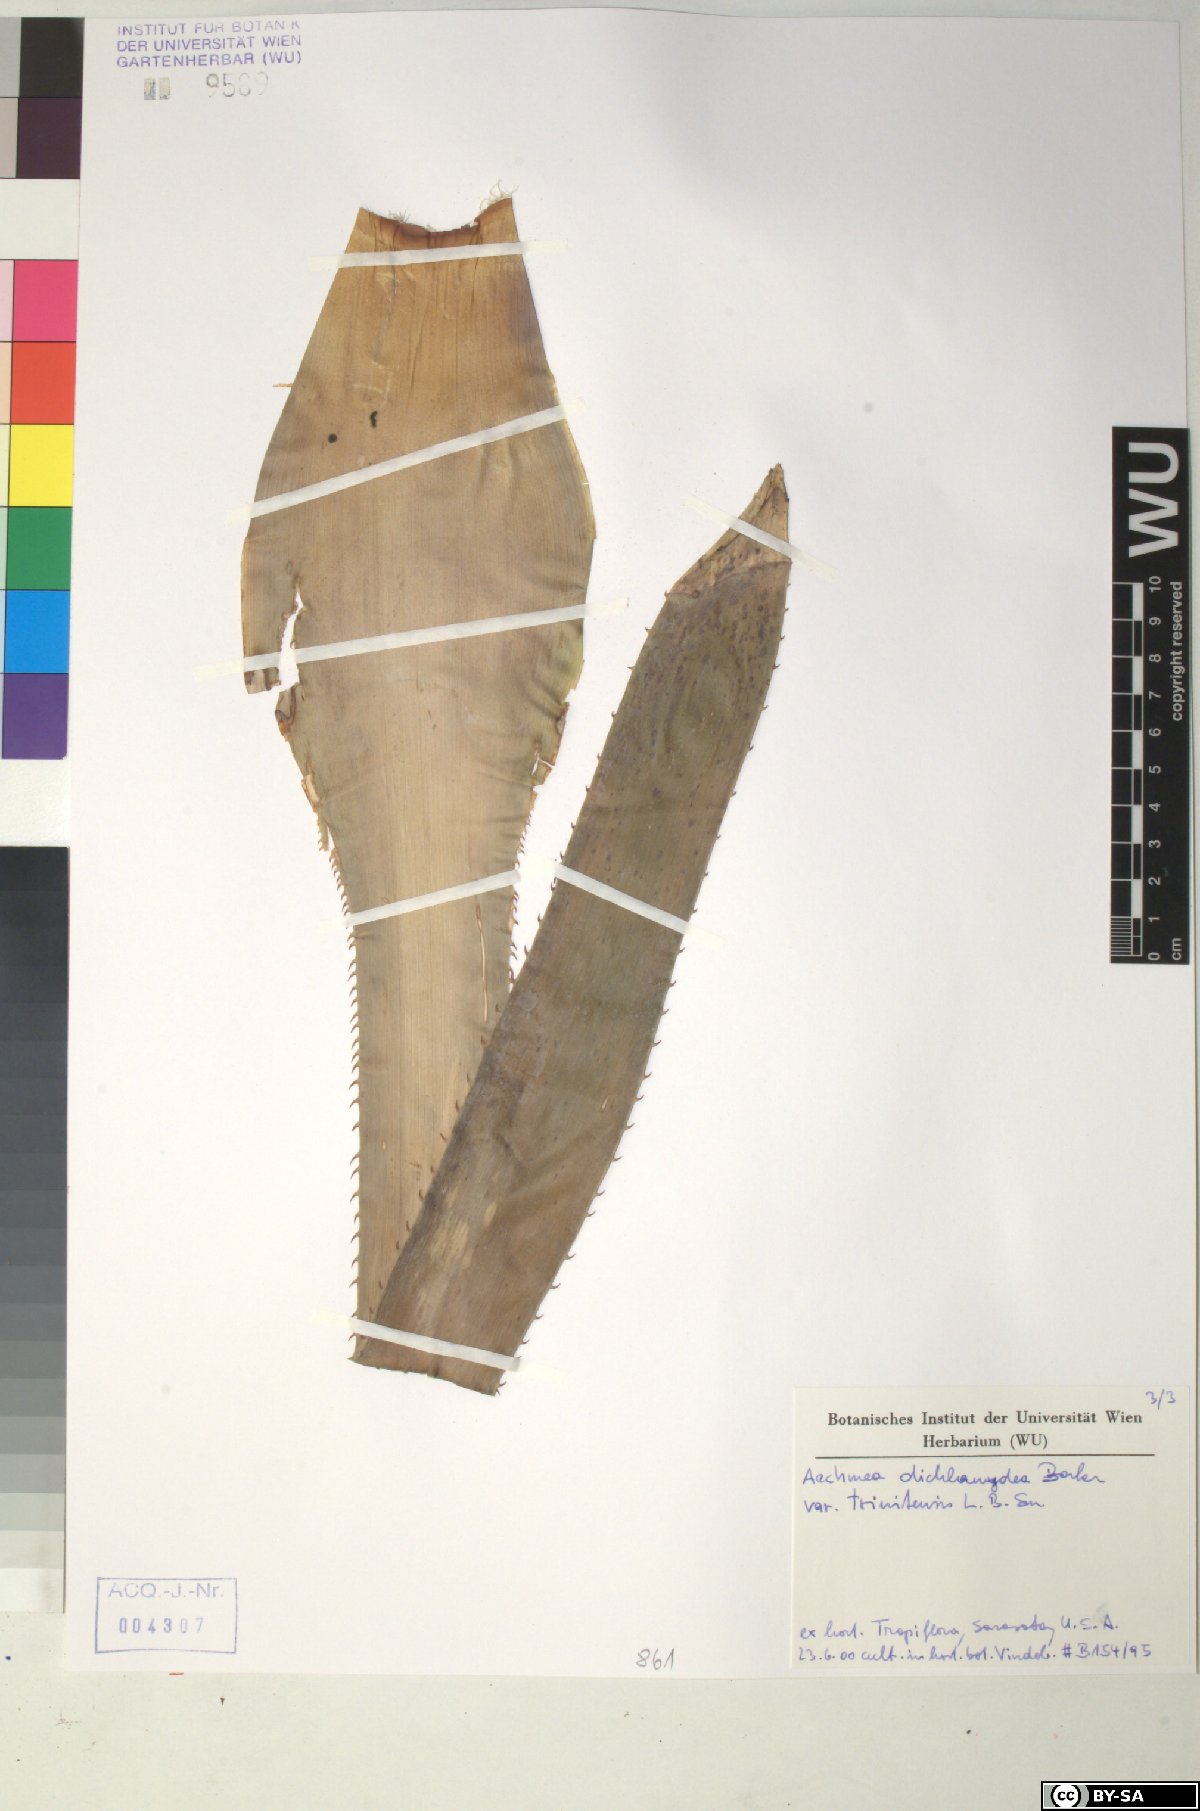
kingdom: Plantae
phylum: Tracheophyta
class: Liliopsida
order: Poales
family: Bromeliaceae
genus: Aechmea
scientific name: Aechmea
